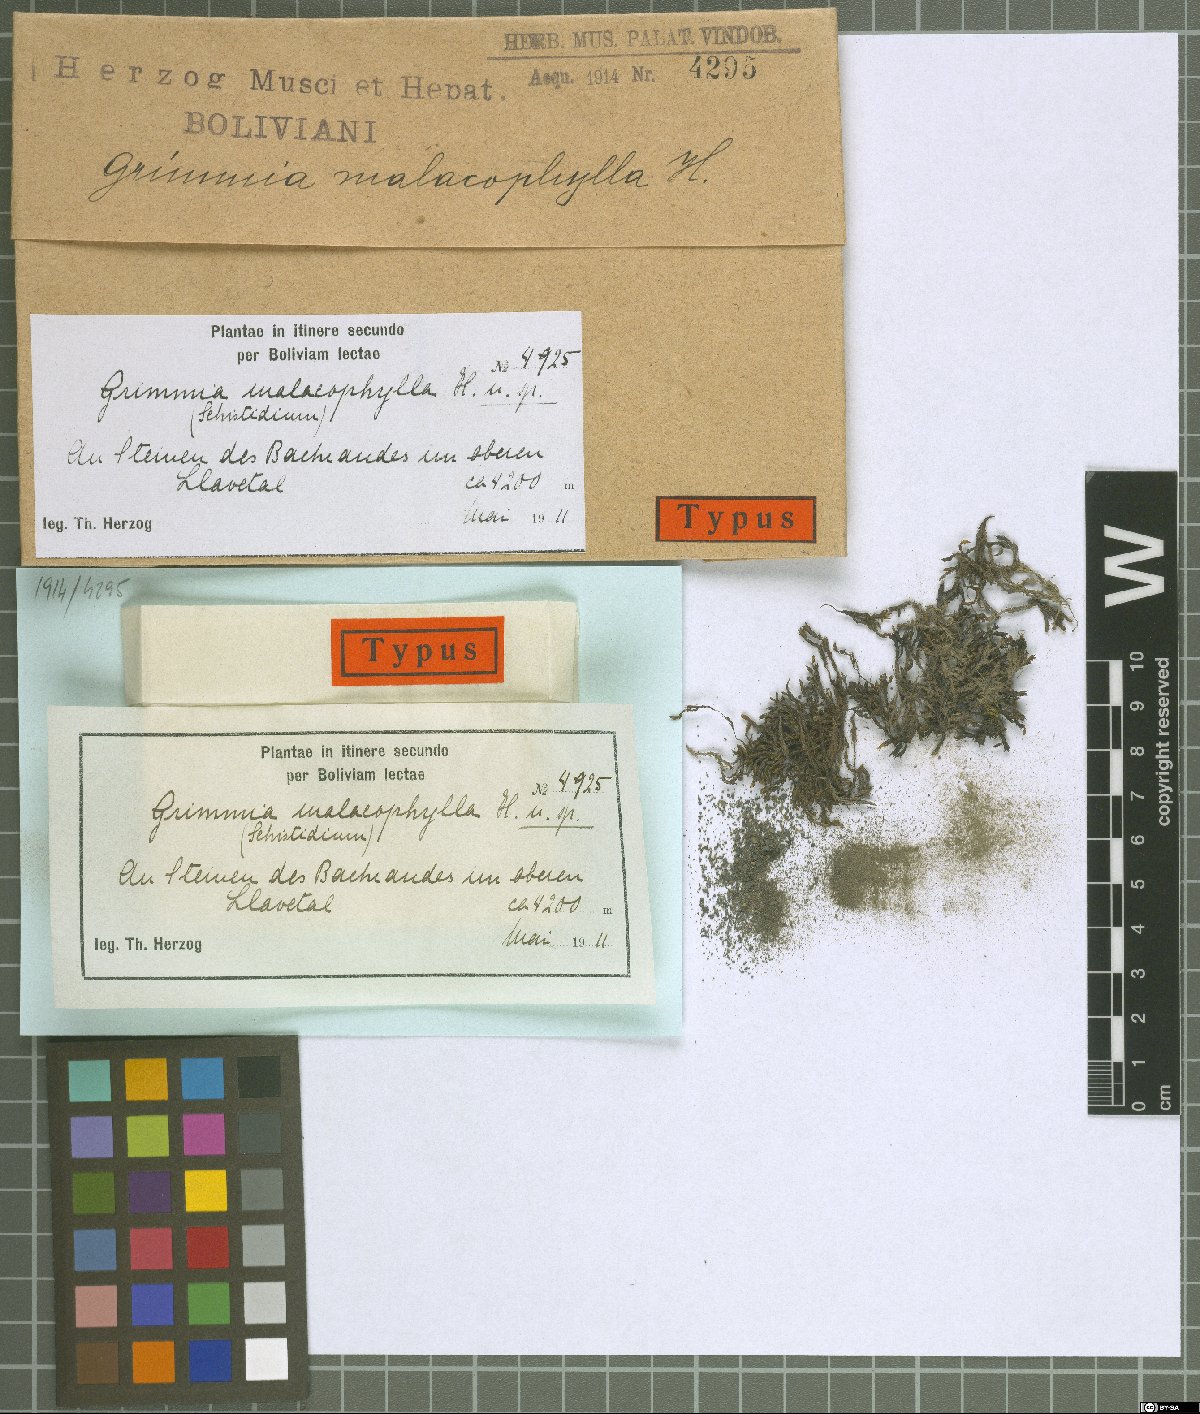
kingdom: Plantae
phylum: Bryophyta
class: Bryopsida
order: Grimmiales
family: Grimmiaceae
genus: Schistidium
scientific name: Schistidium rivulare
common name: River bloom moss
